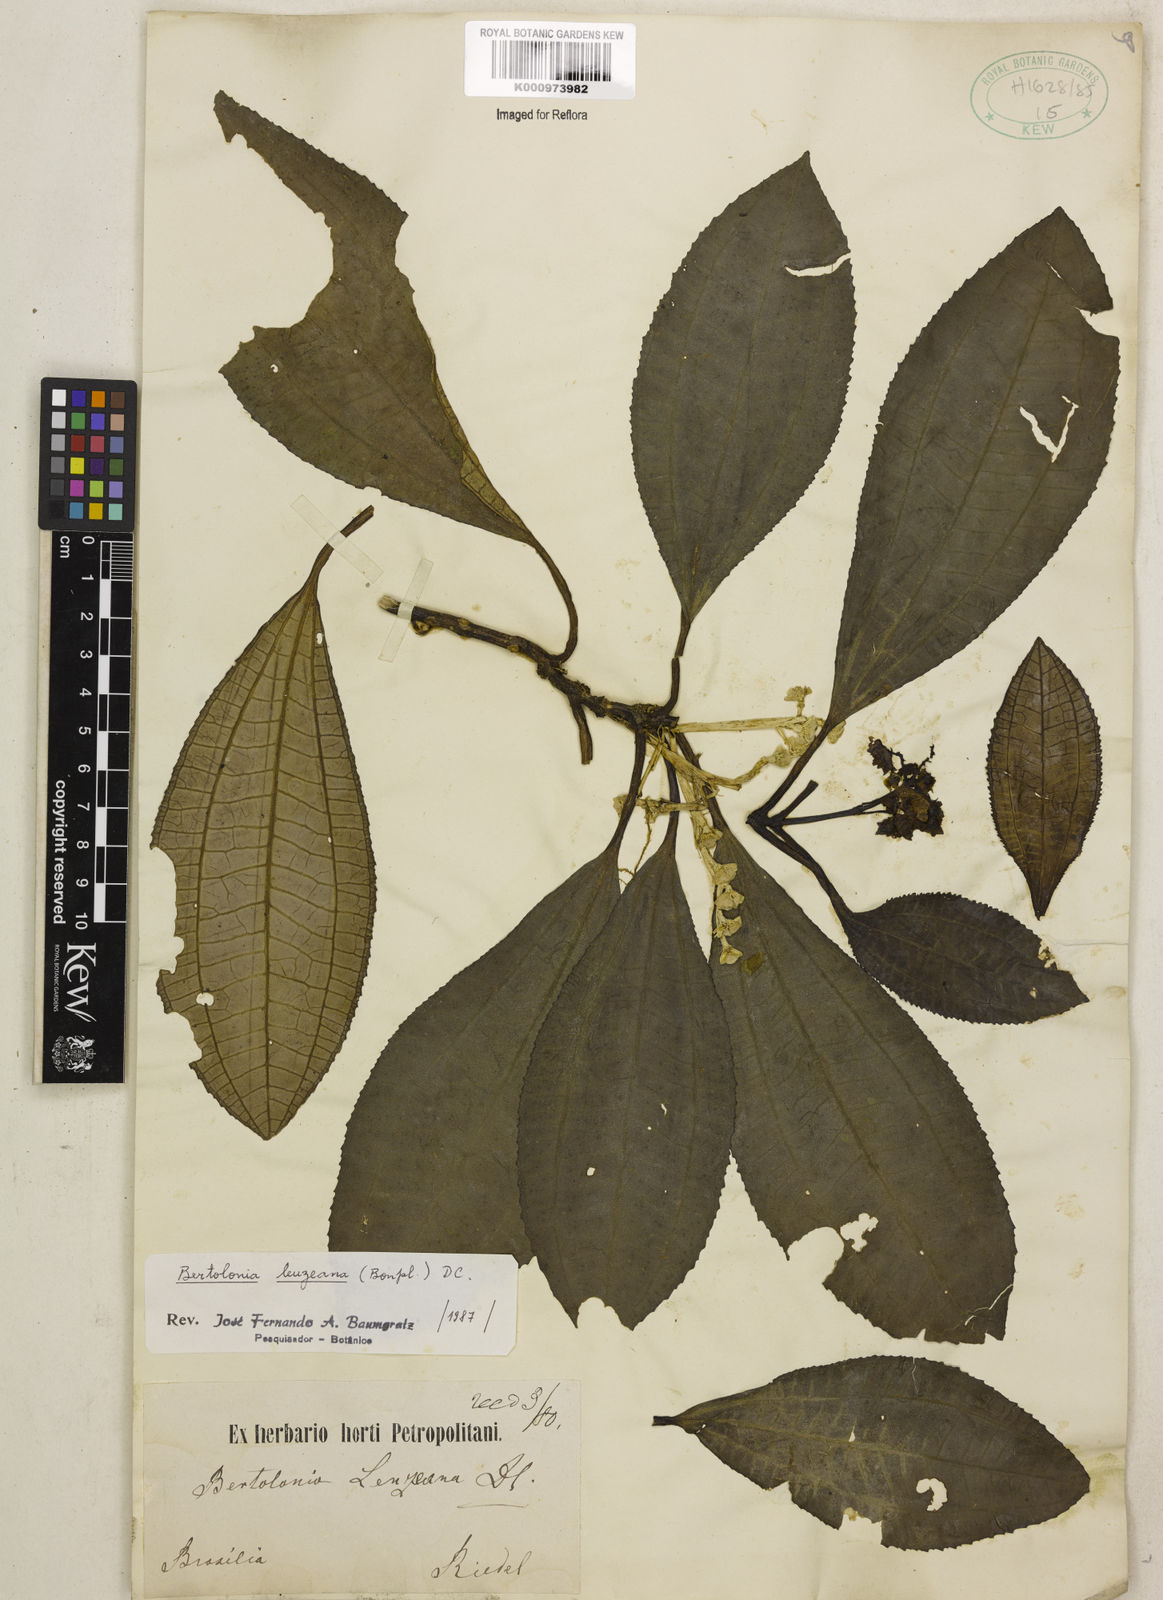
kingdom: Plantae
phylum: Tracheophyta
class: Magnoliopsida
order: Myrtales
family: Melastomataceae
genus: Bertolonia
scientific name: Bertolonia leuzeana
